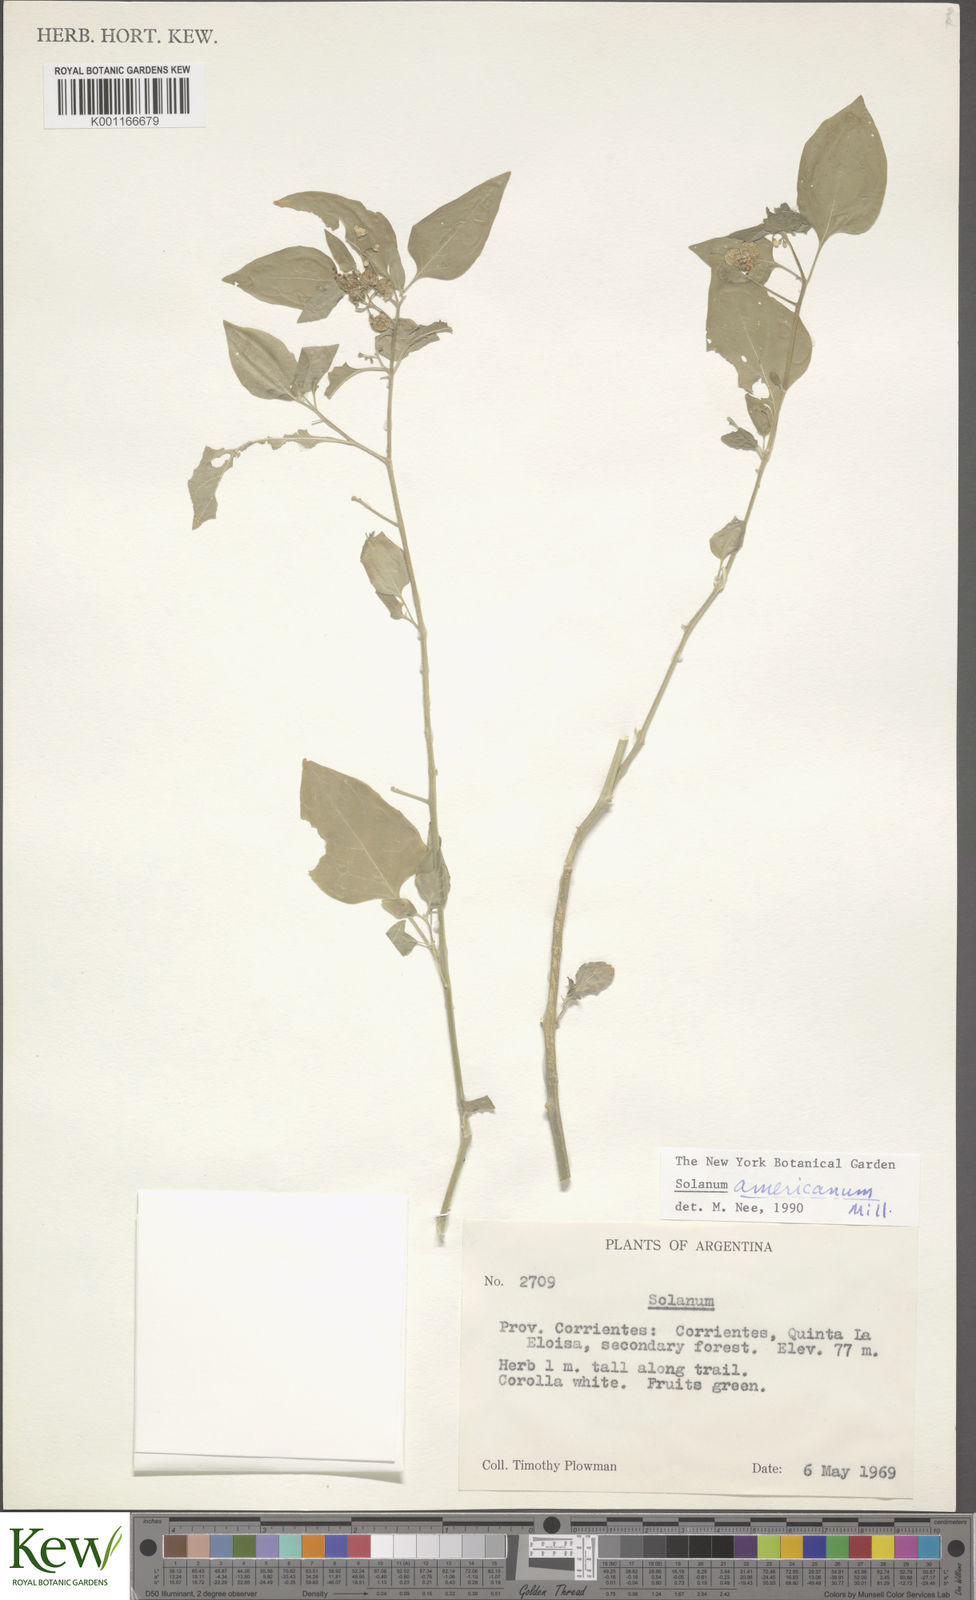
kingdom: Plantae
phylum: Tracheophyta
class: Magnoliopsida
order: Solanales
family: Solanaceae
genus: Solanum
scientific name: Solanum americanum
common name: American black nightshade
